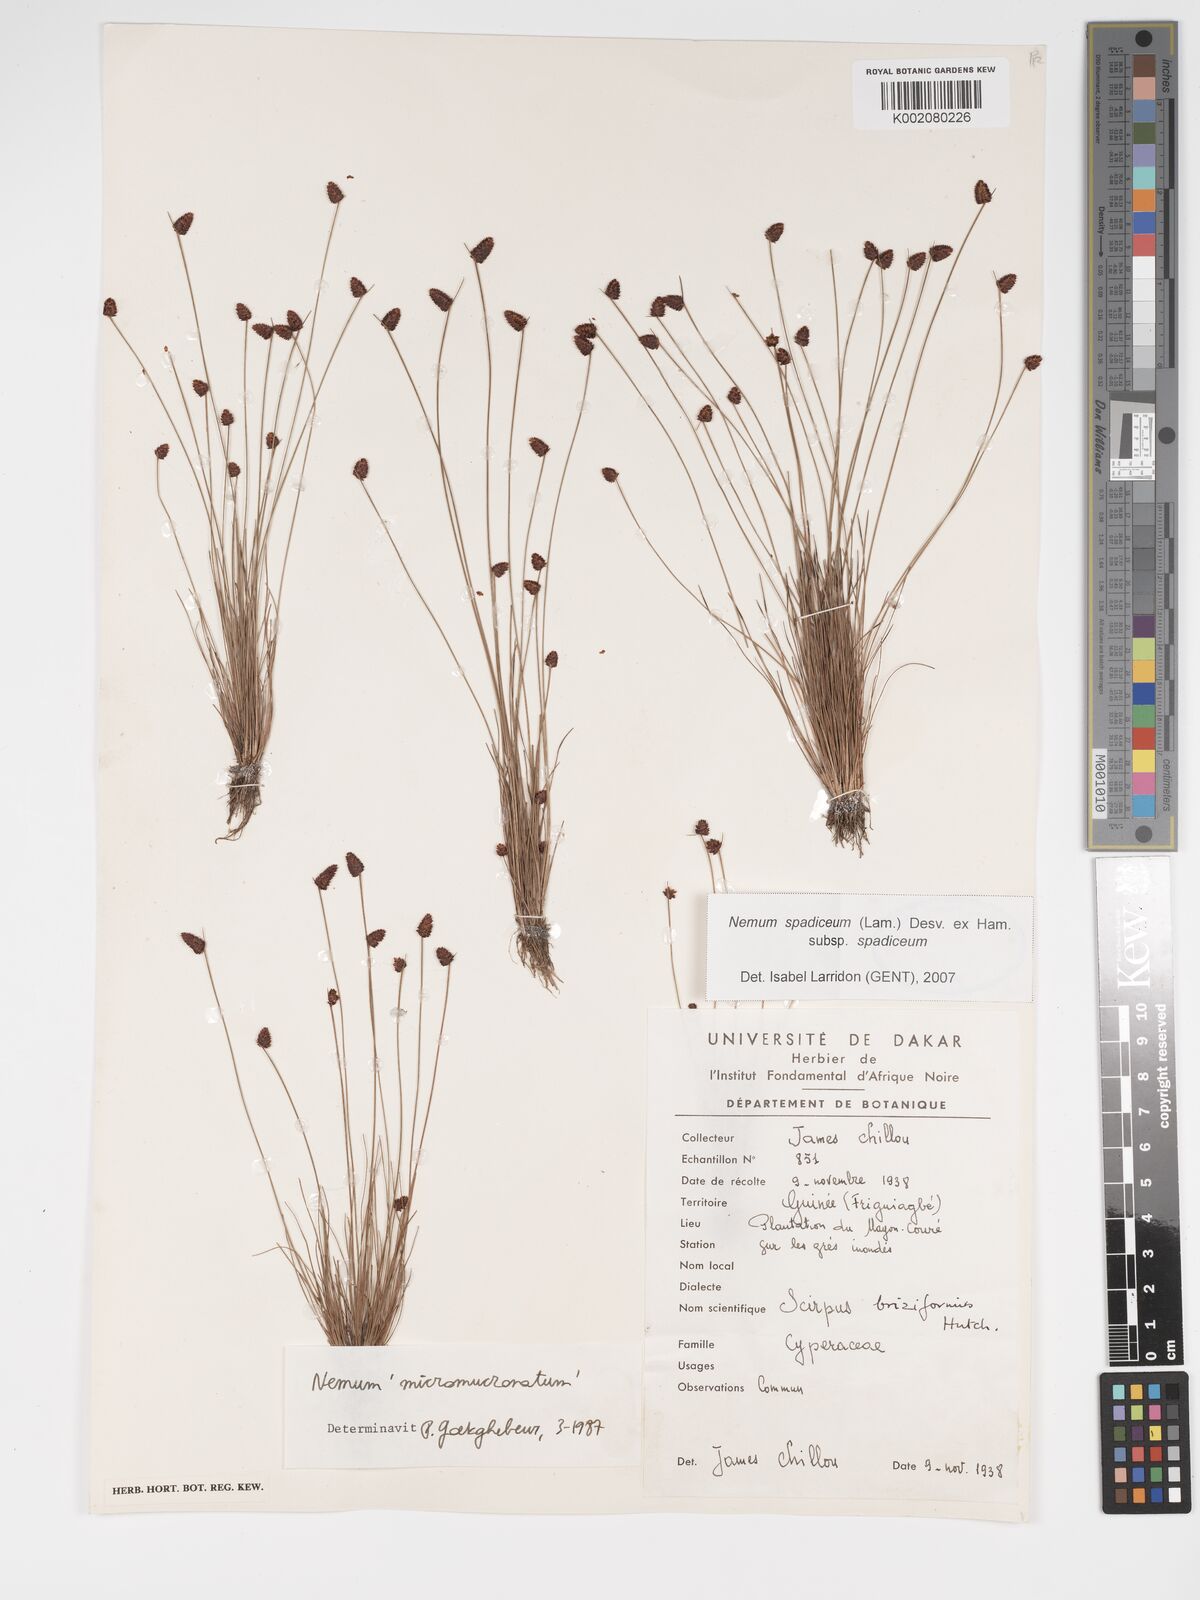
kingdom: Plantae
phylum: Tracheophyta
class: Liliopsida
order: Poales
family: Cyperaceae
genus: Bulbostylis
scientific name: Bulbostylis briziformis
